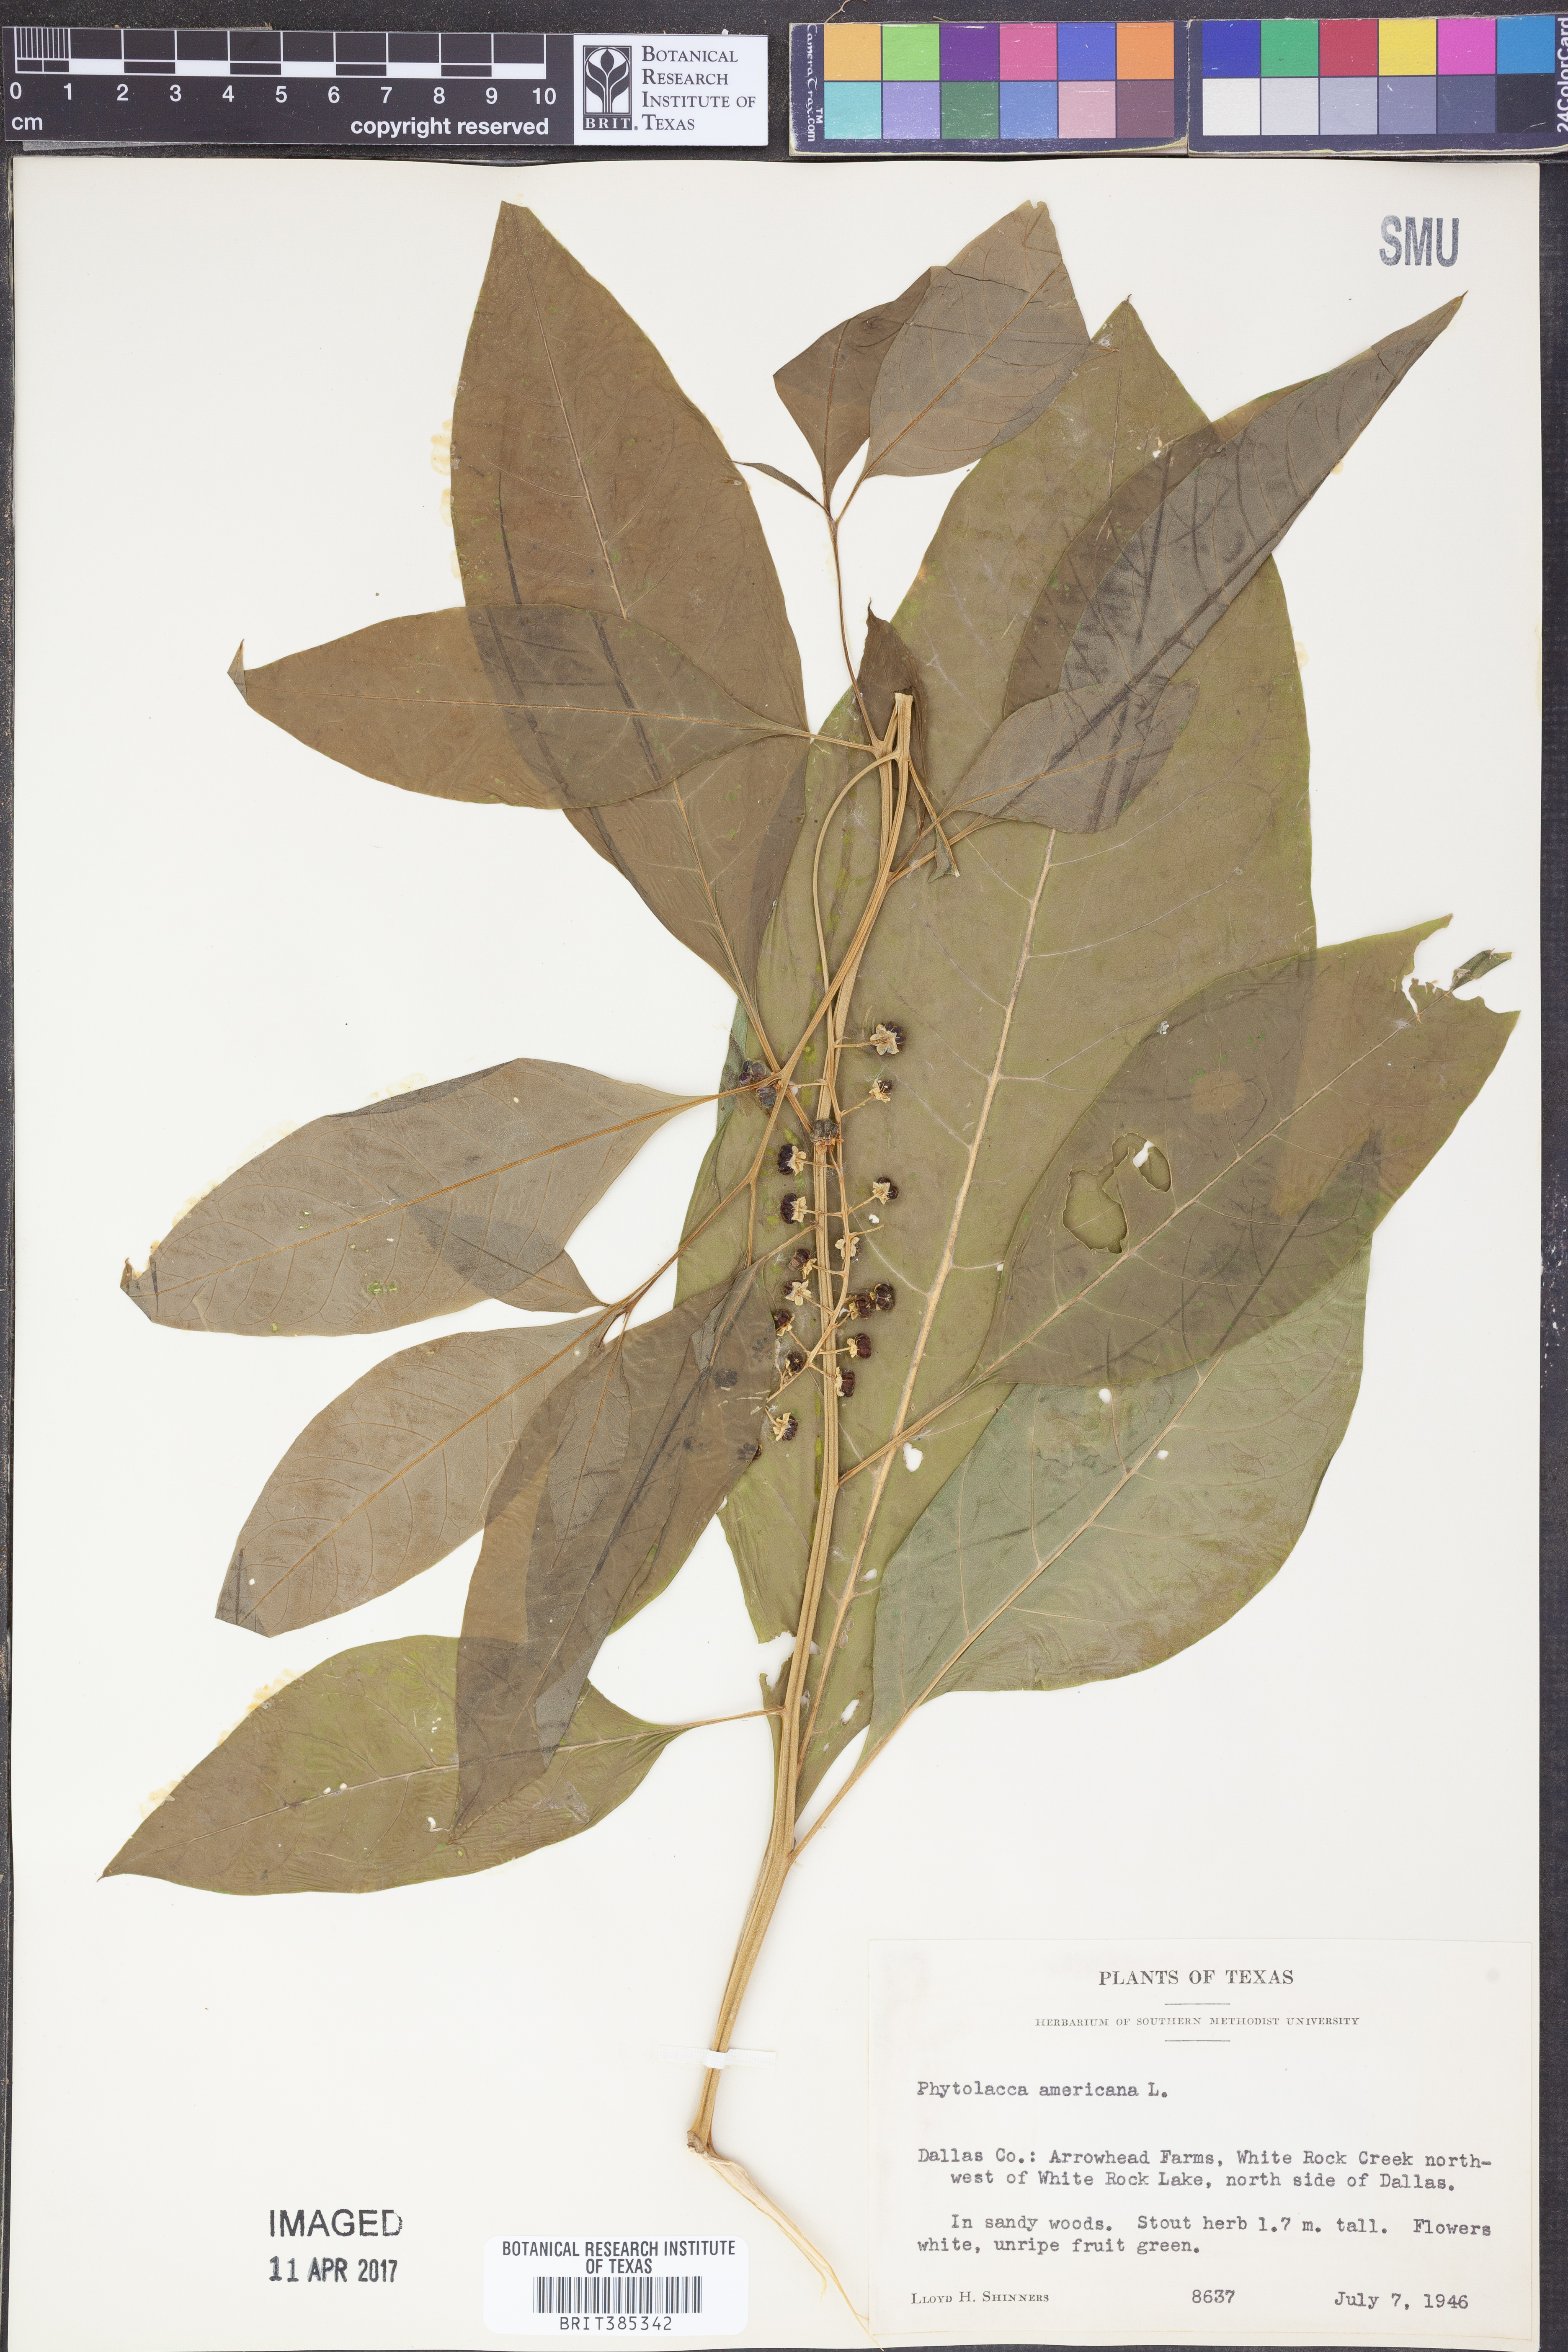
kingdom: Plantae
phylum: Tracheophyta
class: Magnoliopsida
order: Caryophyllales
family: Phytolaccaceae
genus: Phytolacca
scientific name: Phytolacca americana
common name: American pokeweed
